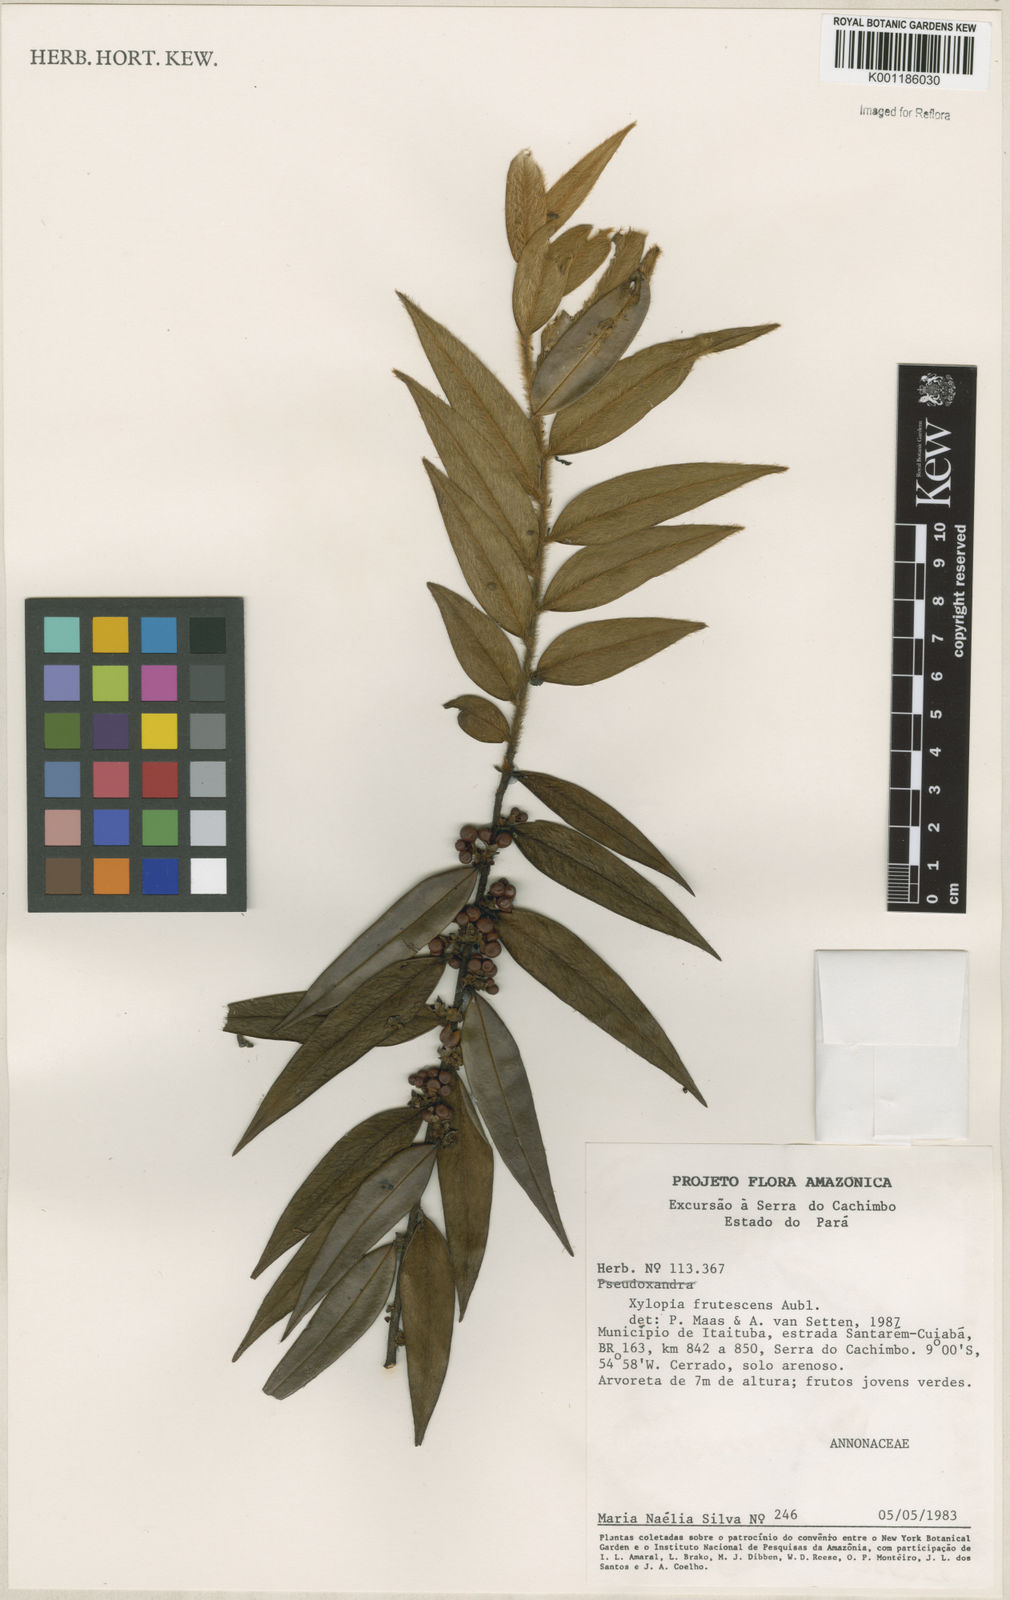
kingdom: Plantae
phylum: Tracheophyta
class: Magnoliopsida
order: Magnoliales
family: Annonaceae
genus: Xylopia
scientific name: Xylopia frutescens
